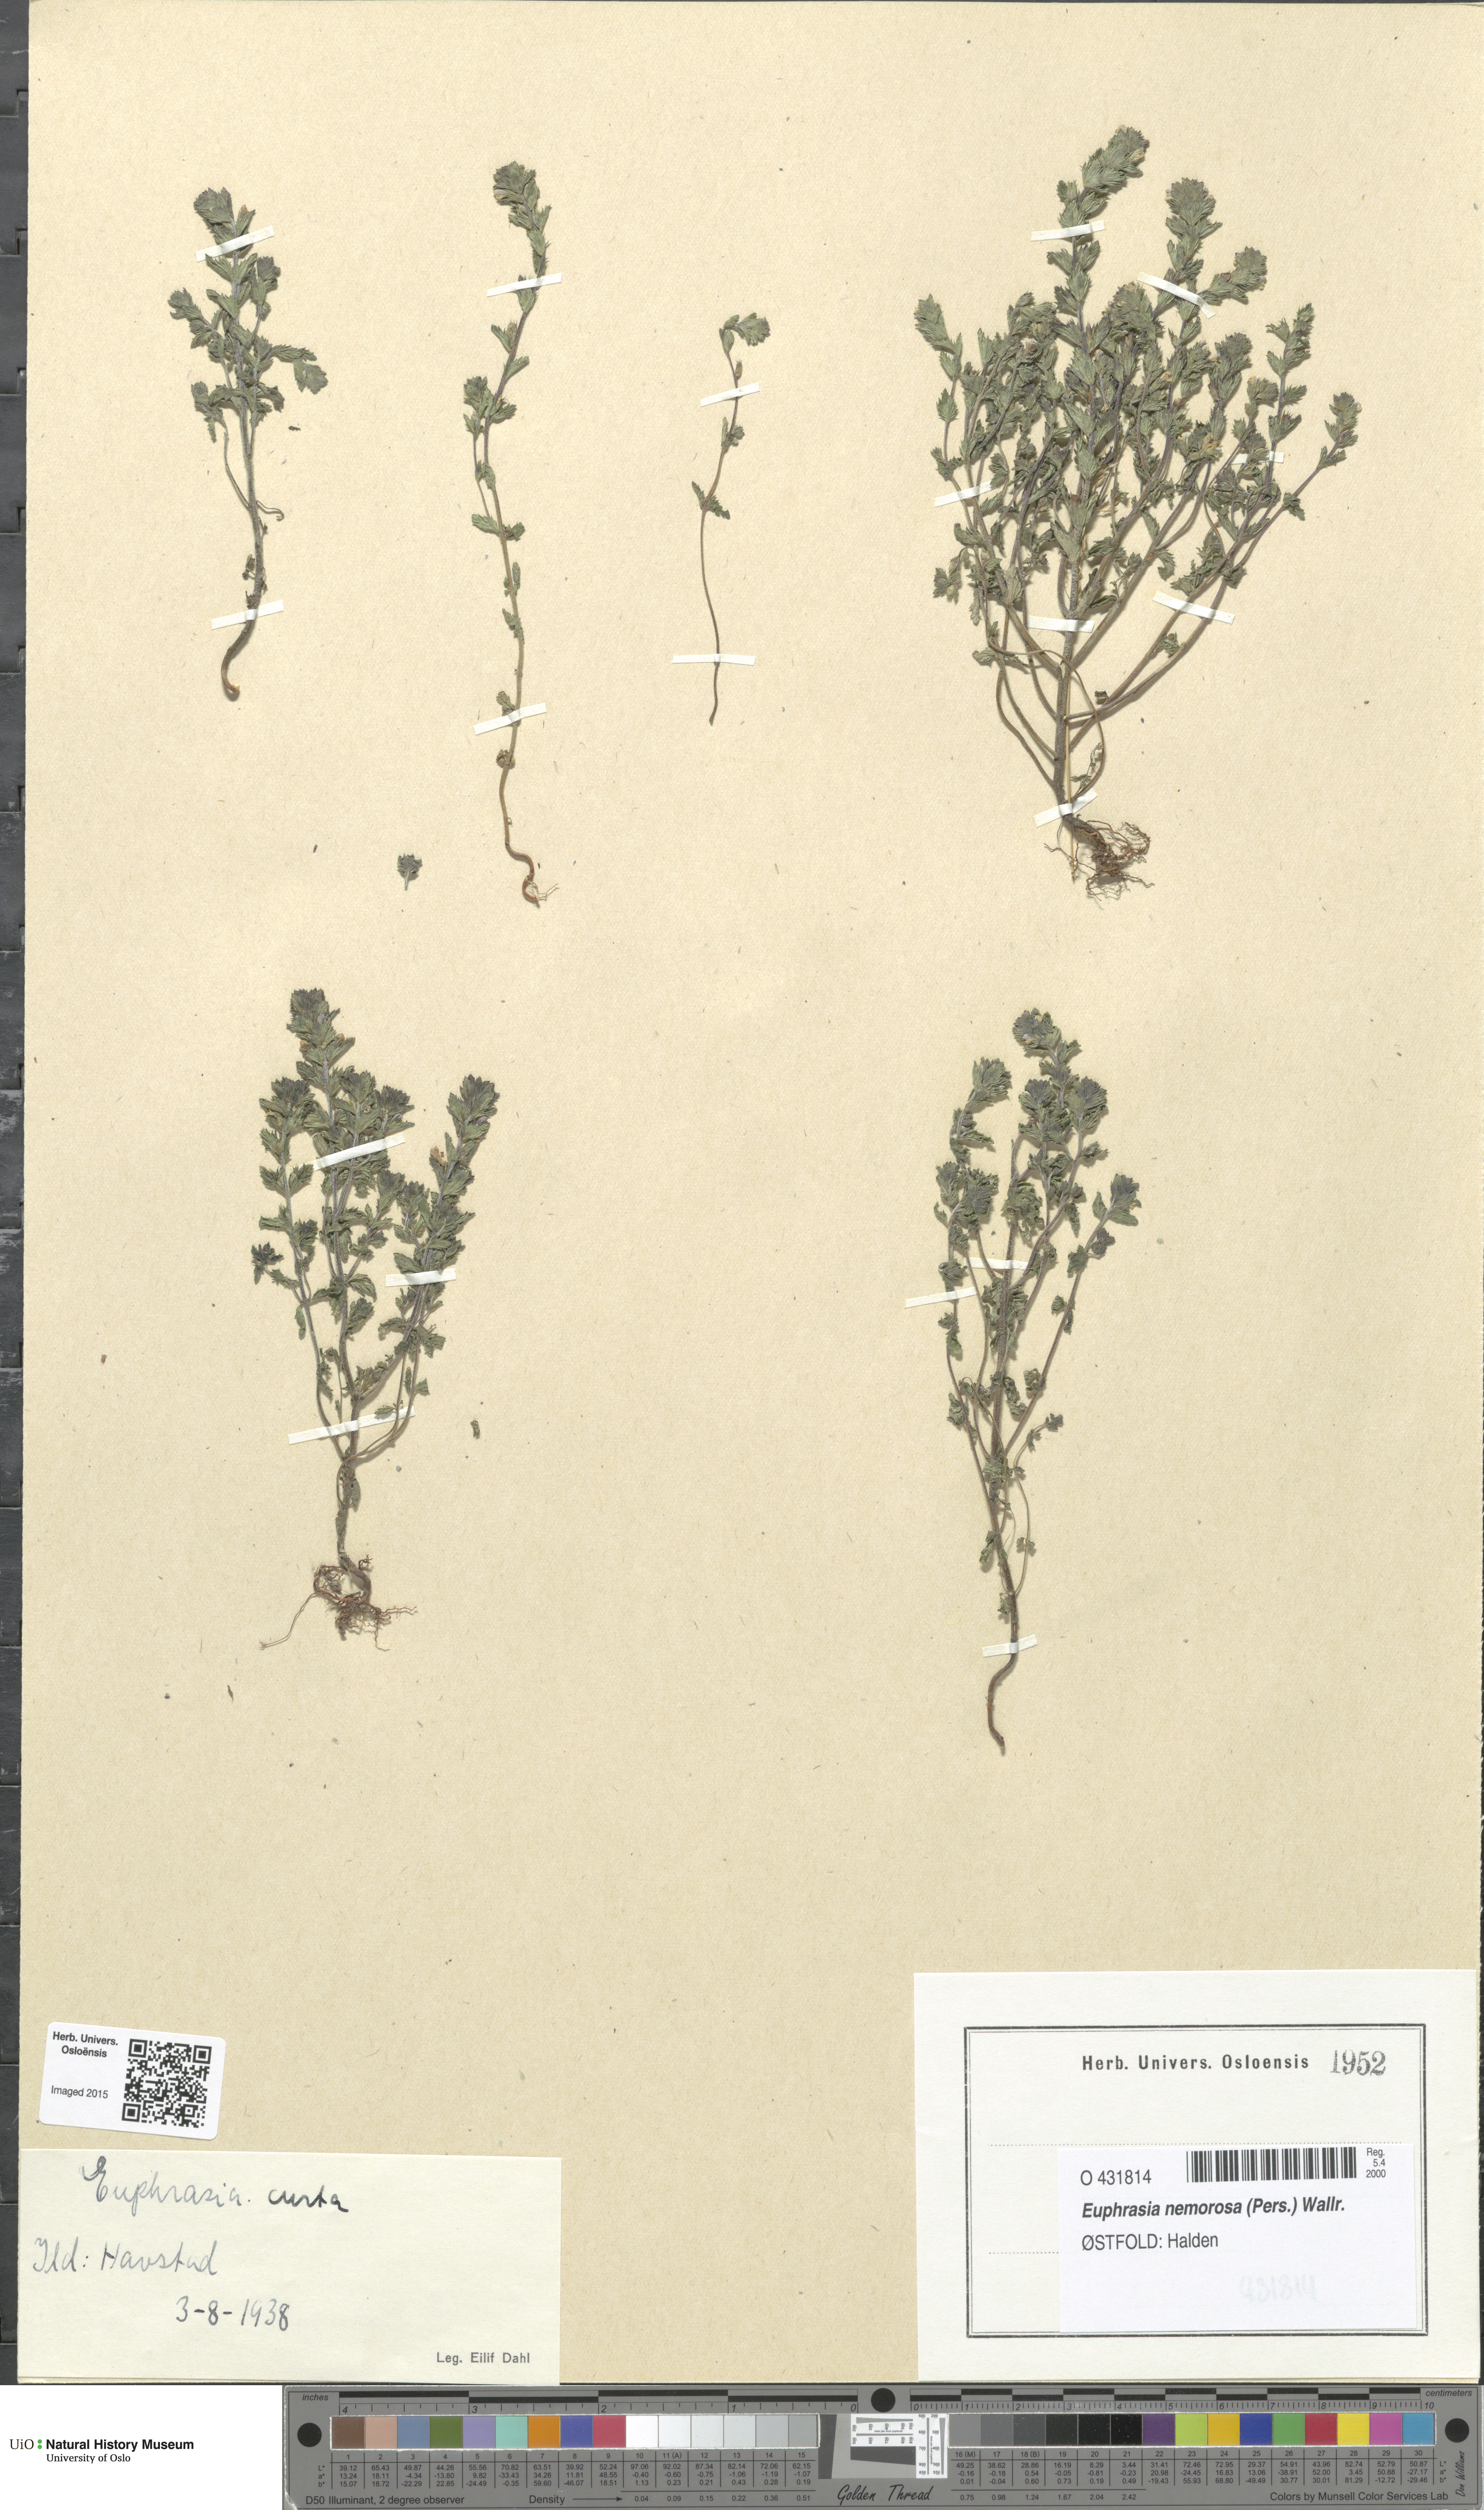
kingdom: Plantae
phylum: Tracheophyta
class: Magnoliopsida
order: Lamiales
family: Orobanchaceae
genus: Euphrasia
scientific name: Euphrasia micrantha
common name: Northern eyebright
